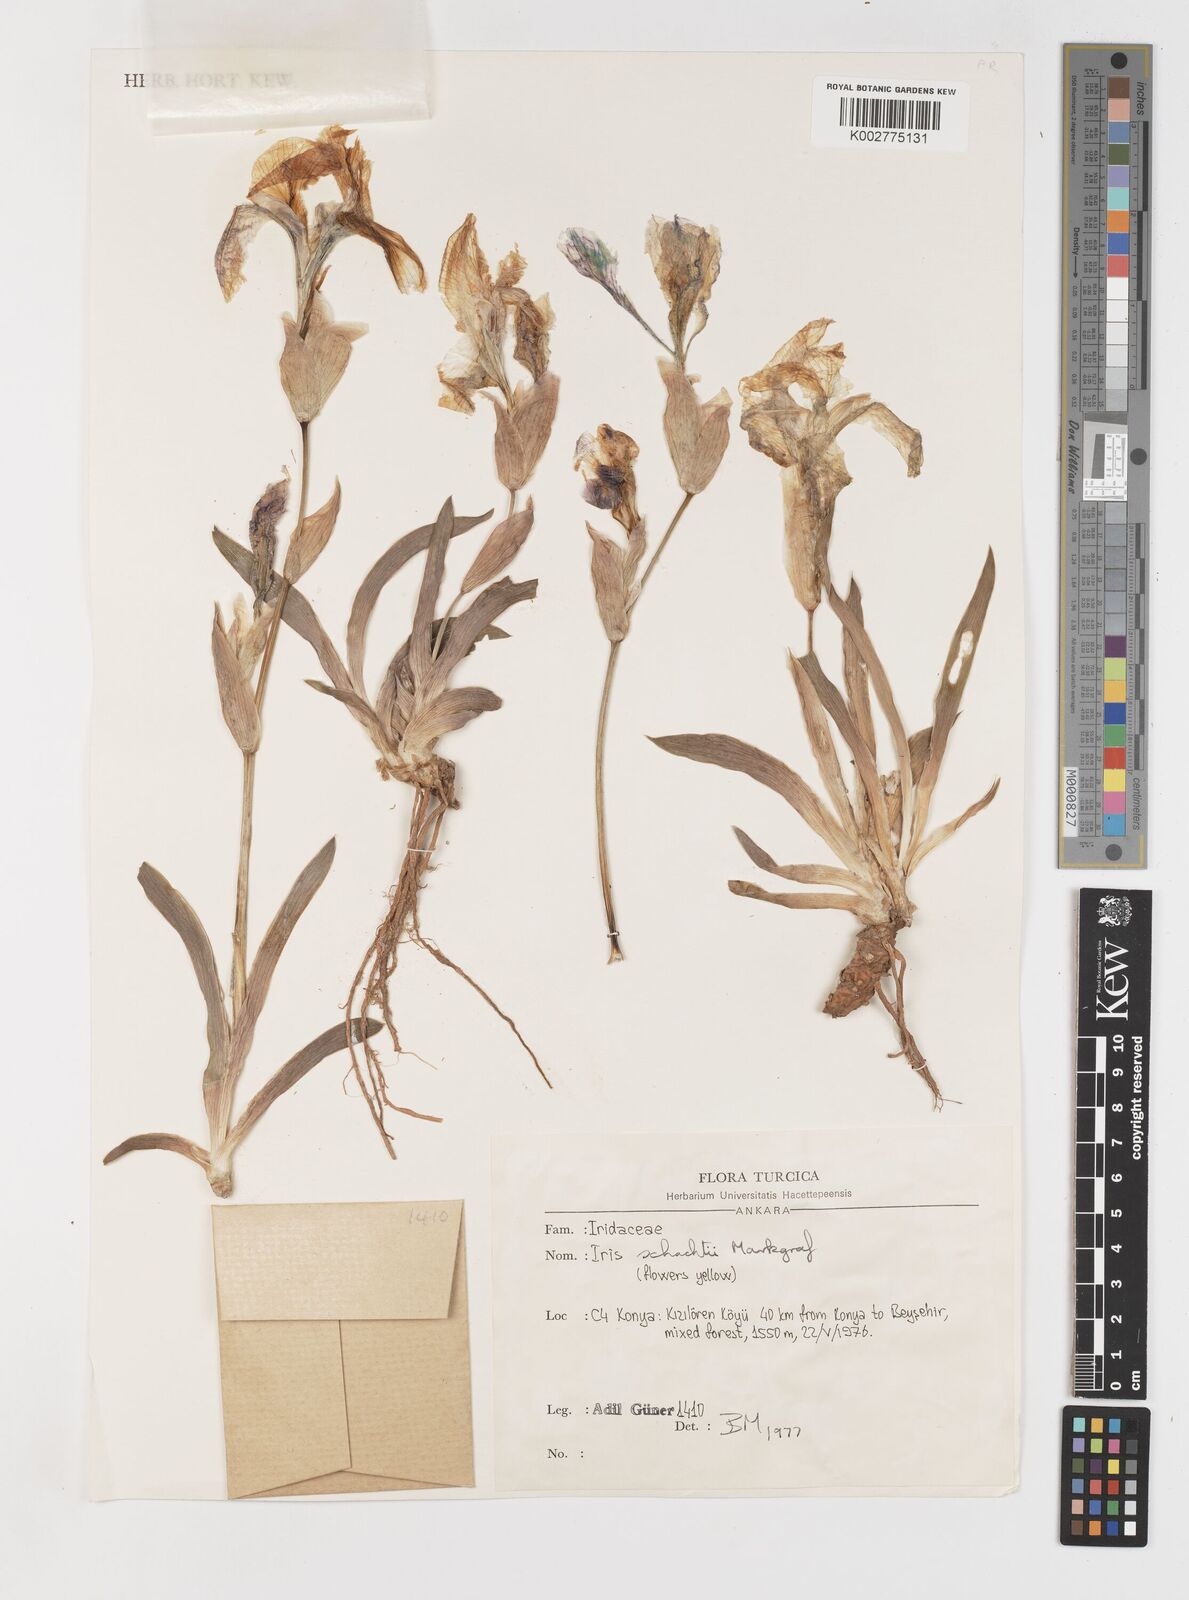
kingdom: Plantae
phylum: Tracheophyta
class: Liliopsida
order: Asparagales
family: Iridaceae
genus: Iris
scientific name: Iris schachtii
